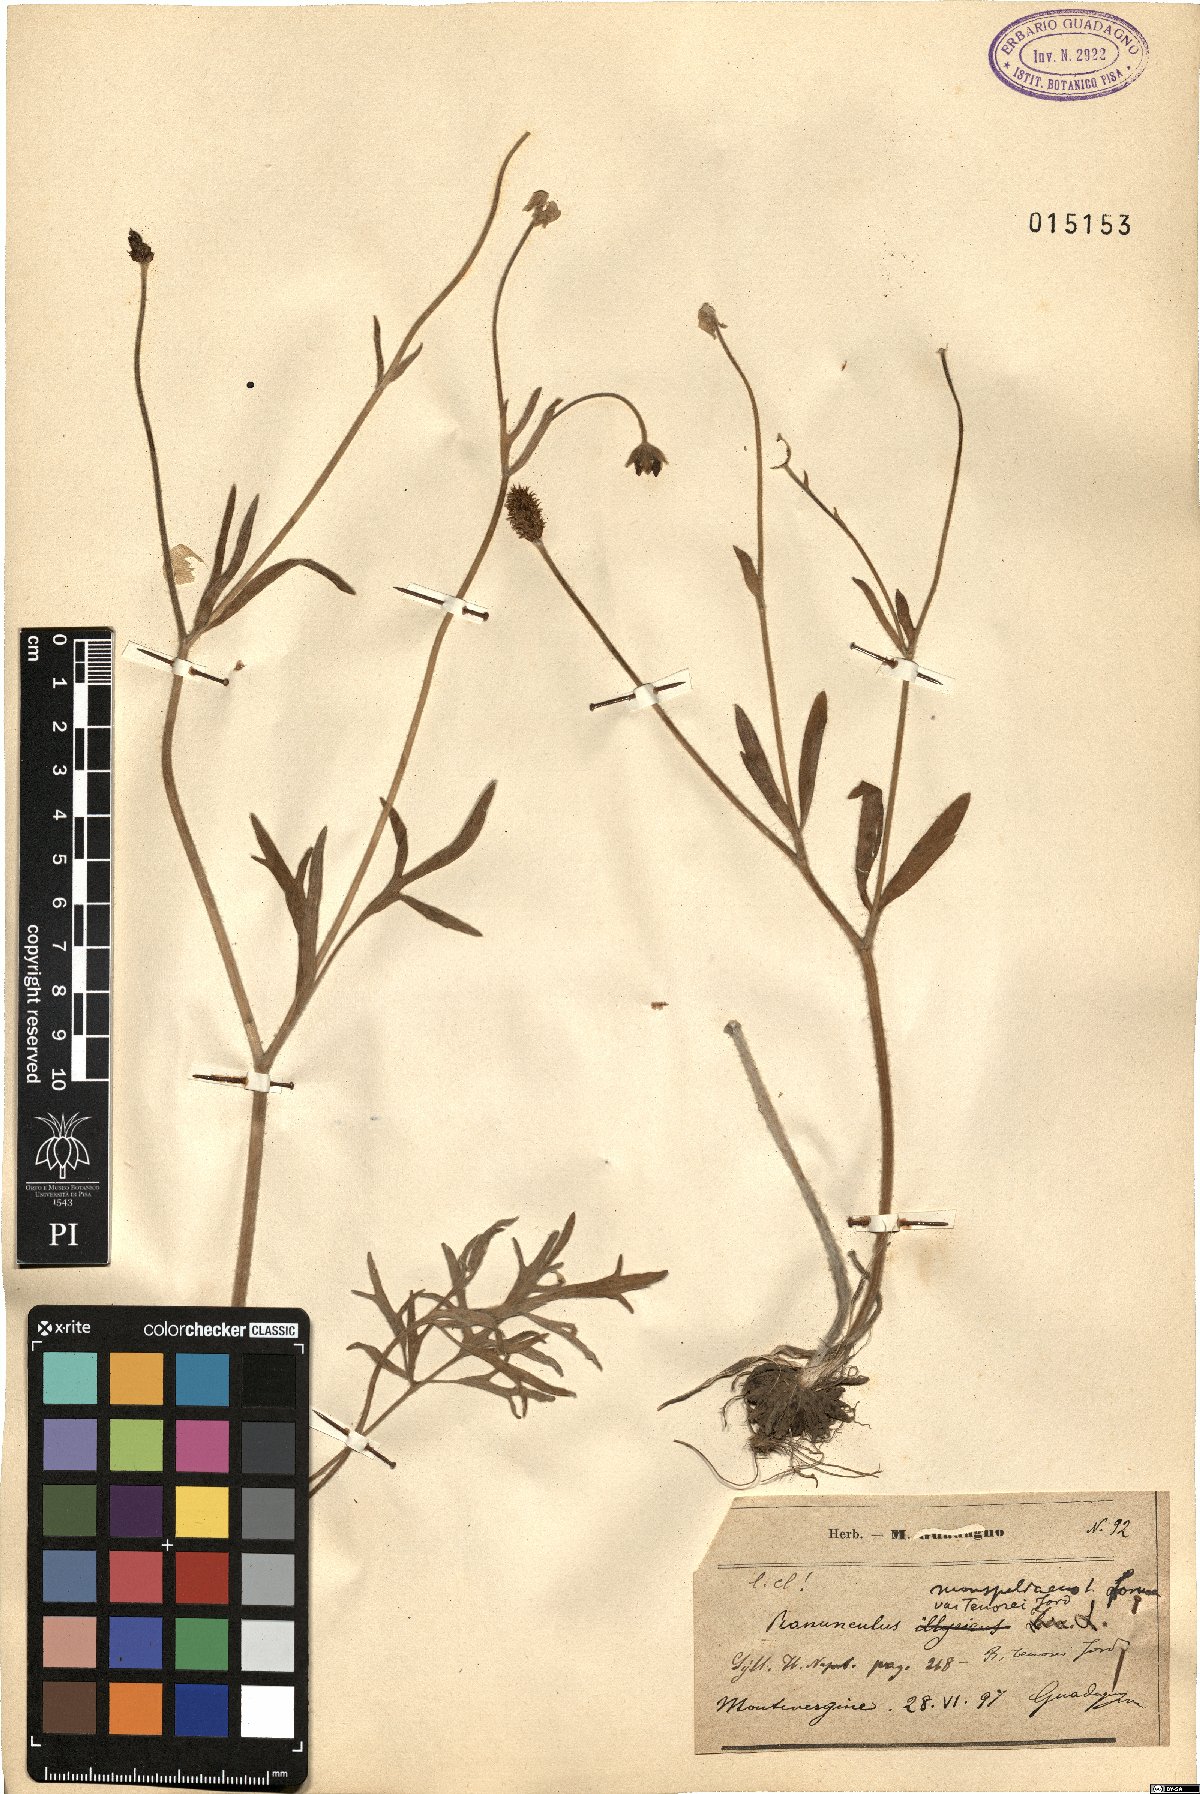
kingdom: Plantae
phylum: Tracheophyta
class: Magnoliopsida
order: Ranunculales
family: Ranunculaceae
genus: Ranunculus
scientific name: Ranunculus monspeliacus
